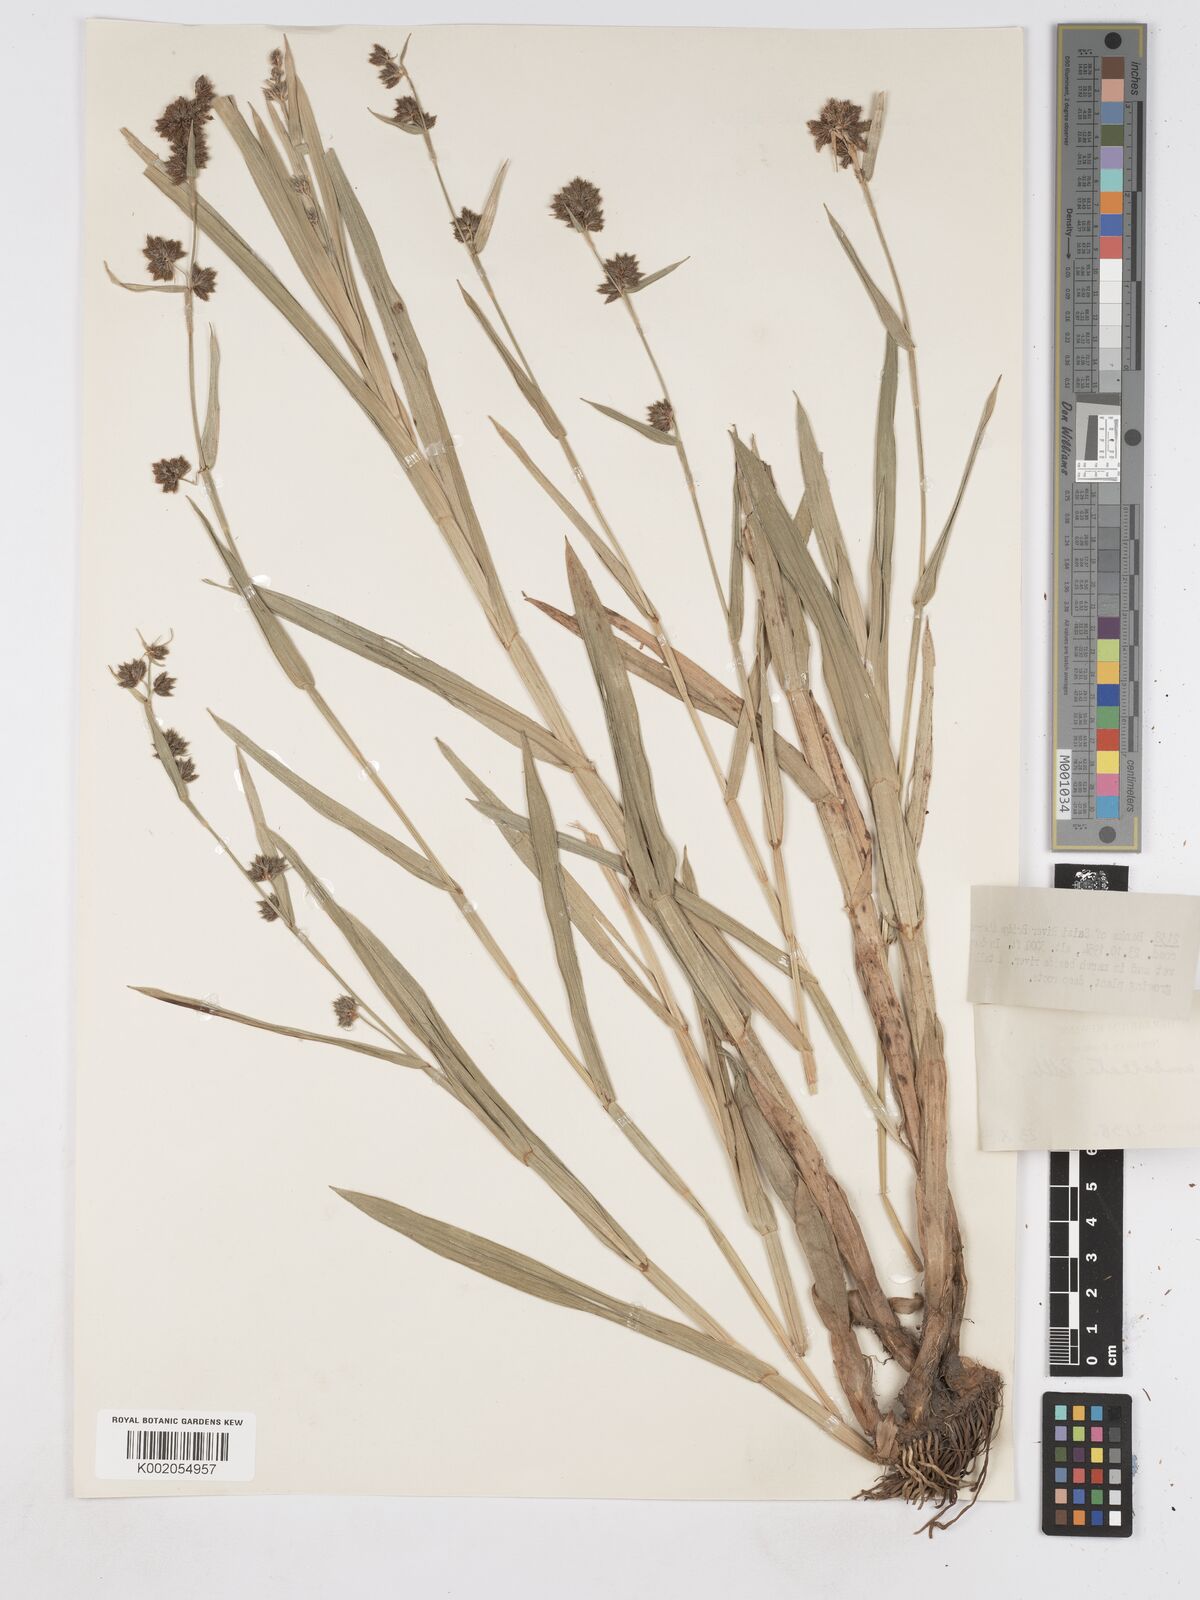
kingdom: Plantae
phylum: Tracheophyta
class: Liliopsida
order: Poales
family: Cyperaceae
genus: Fuirena
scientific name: Fuirena umbellata
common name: Yefen
